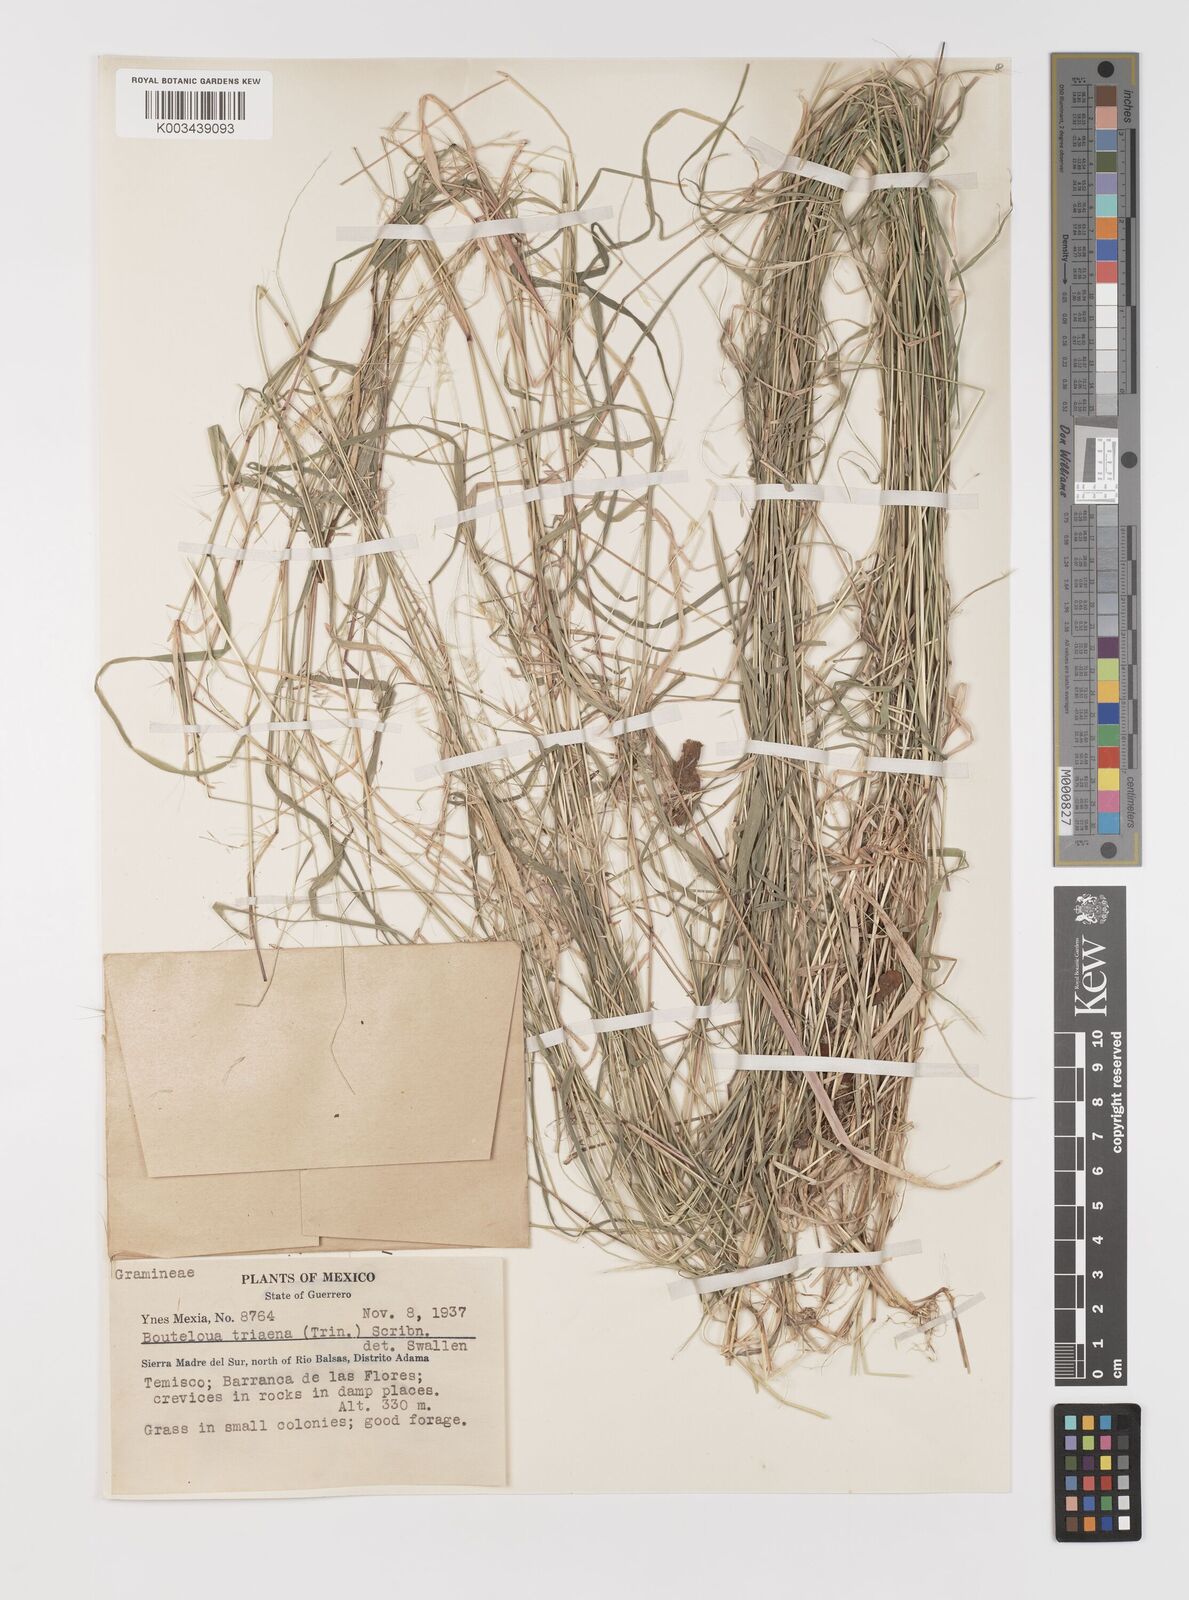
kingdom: Plantae
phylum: Tracheophyta
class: Liliopsida
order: Poales
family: Poaceae
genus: Bouteloua
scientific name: Bouteloua triaena
